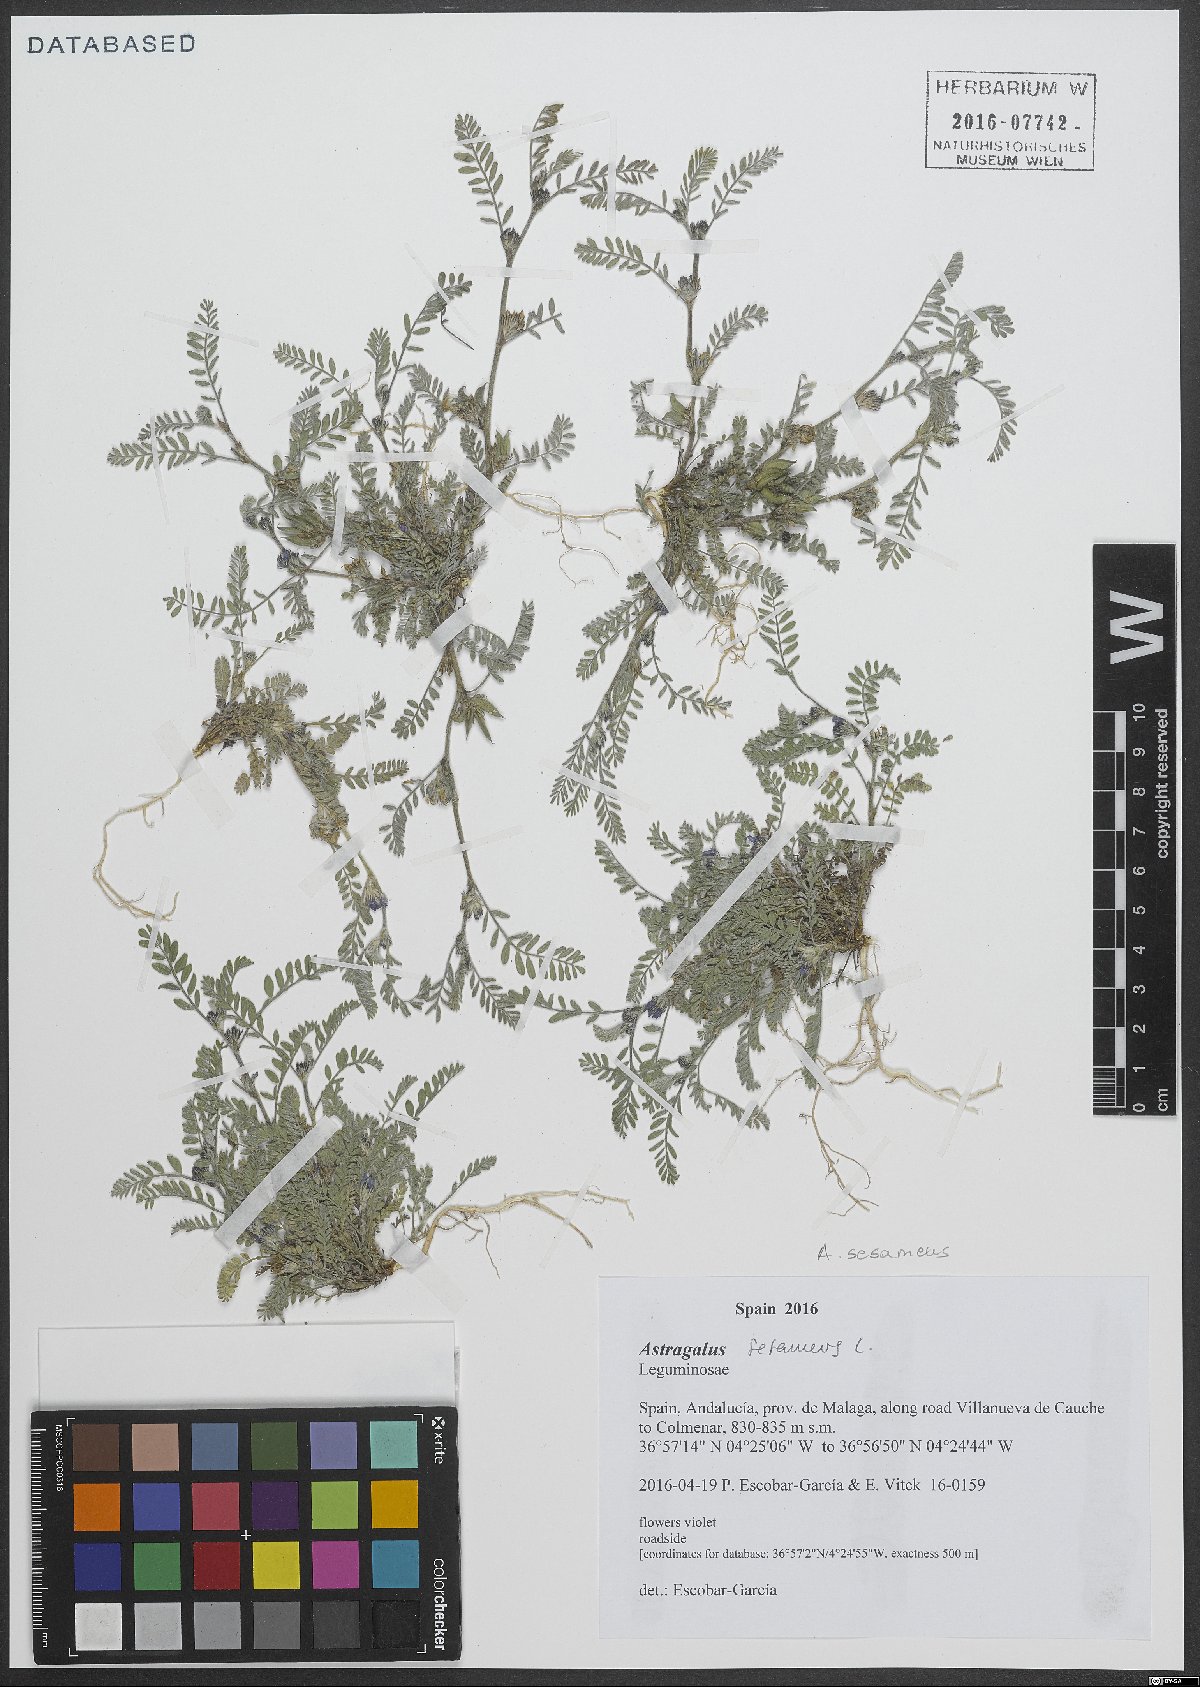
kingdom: Plantae
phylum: Tracheophyta
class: Magnoliopsida
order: Fabales
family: Fabaceae
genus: Astragalus
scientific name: Astragalus sesameus
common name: Purple milk-vetch
